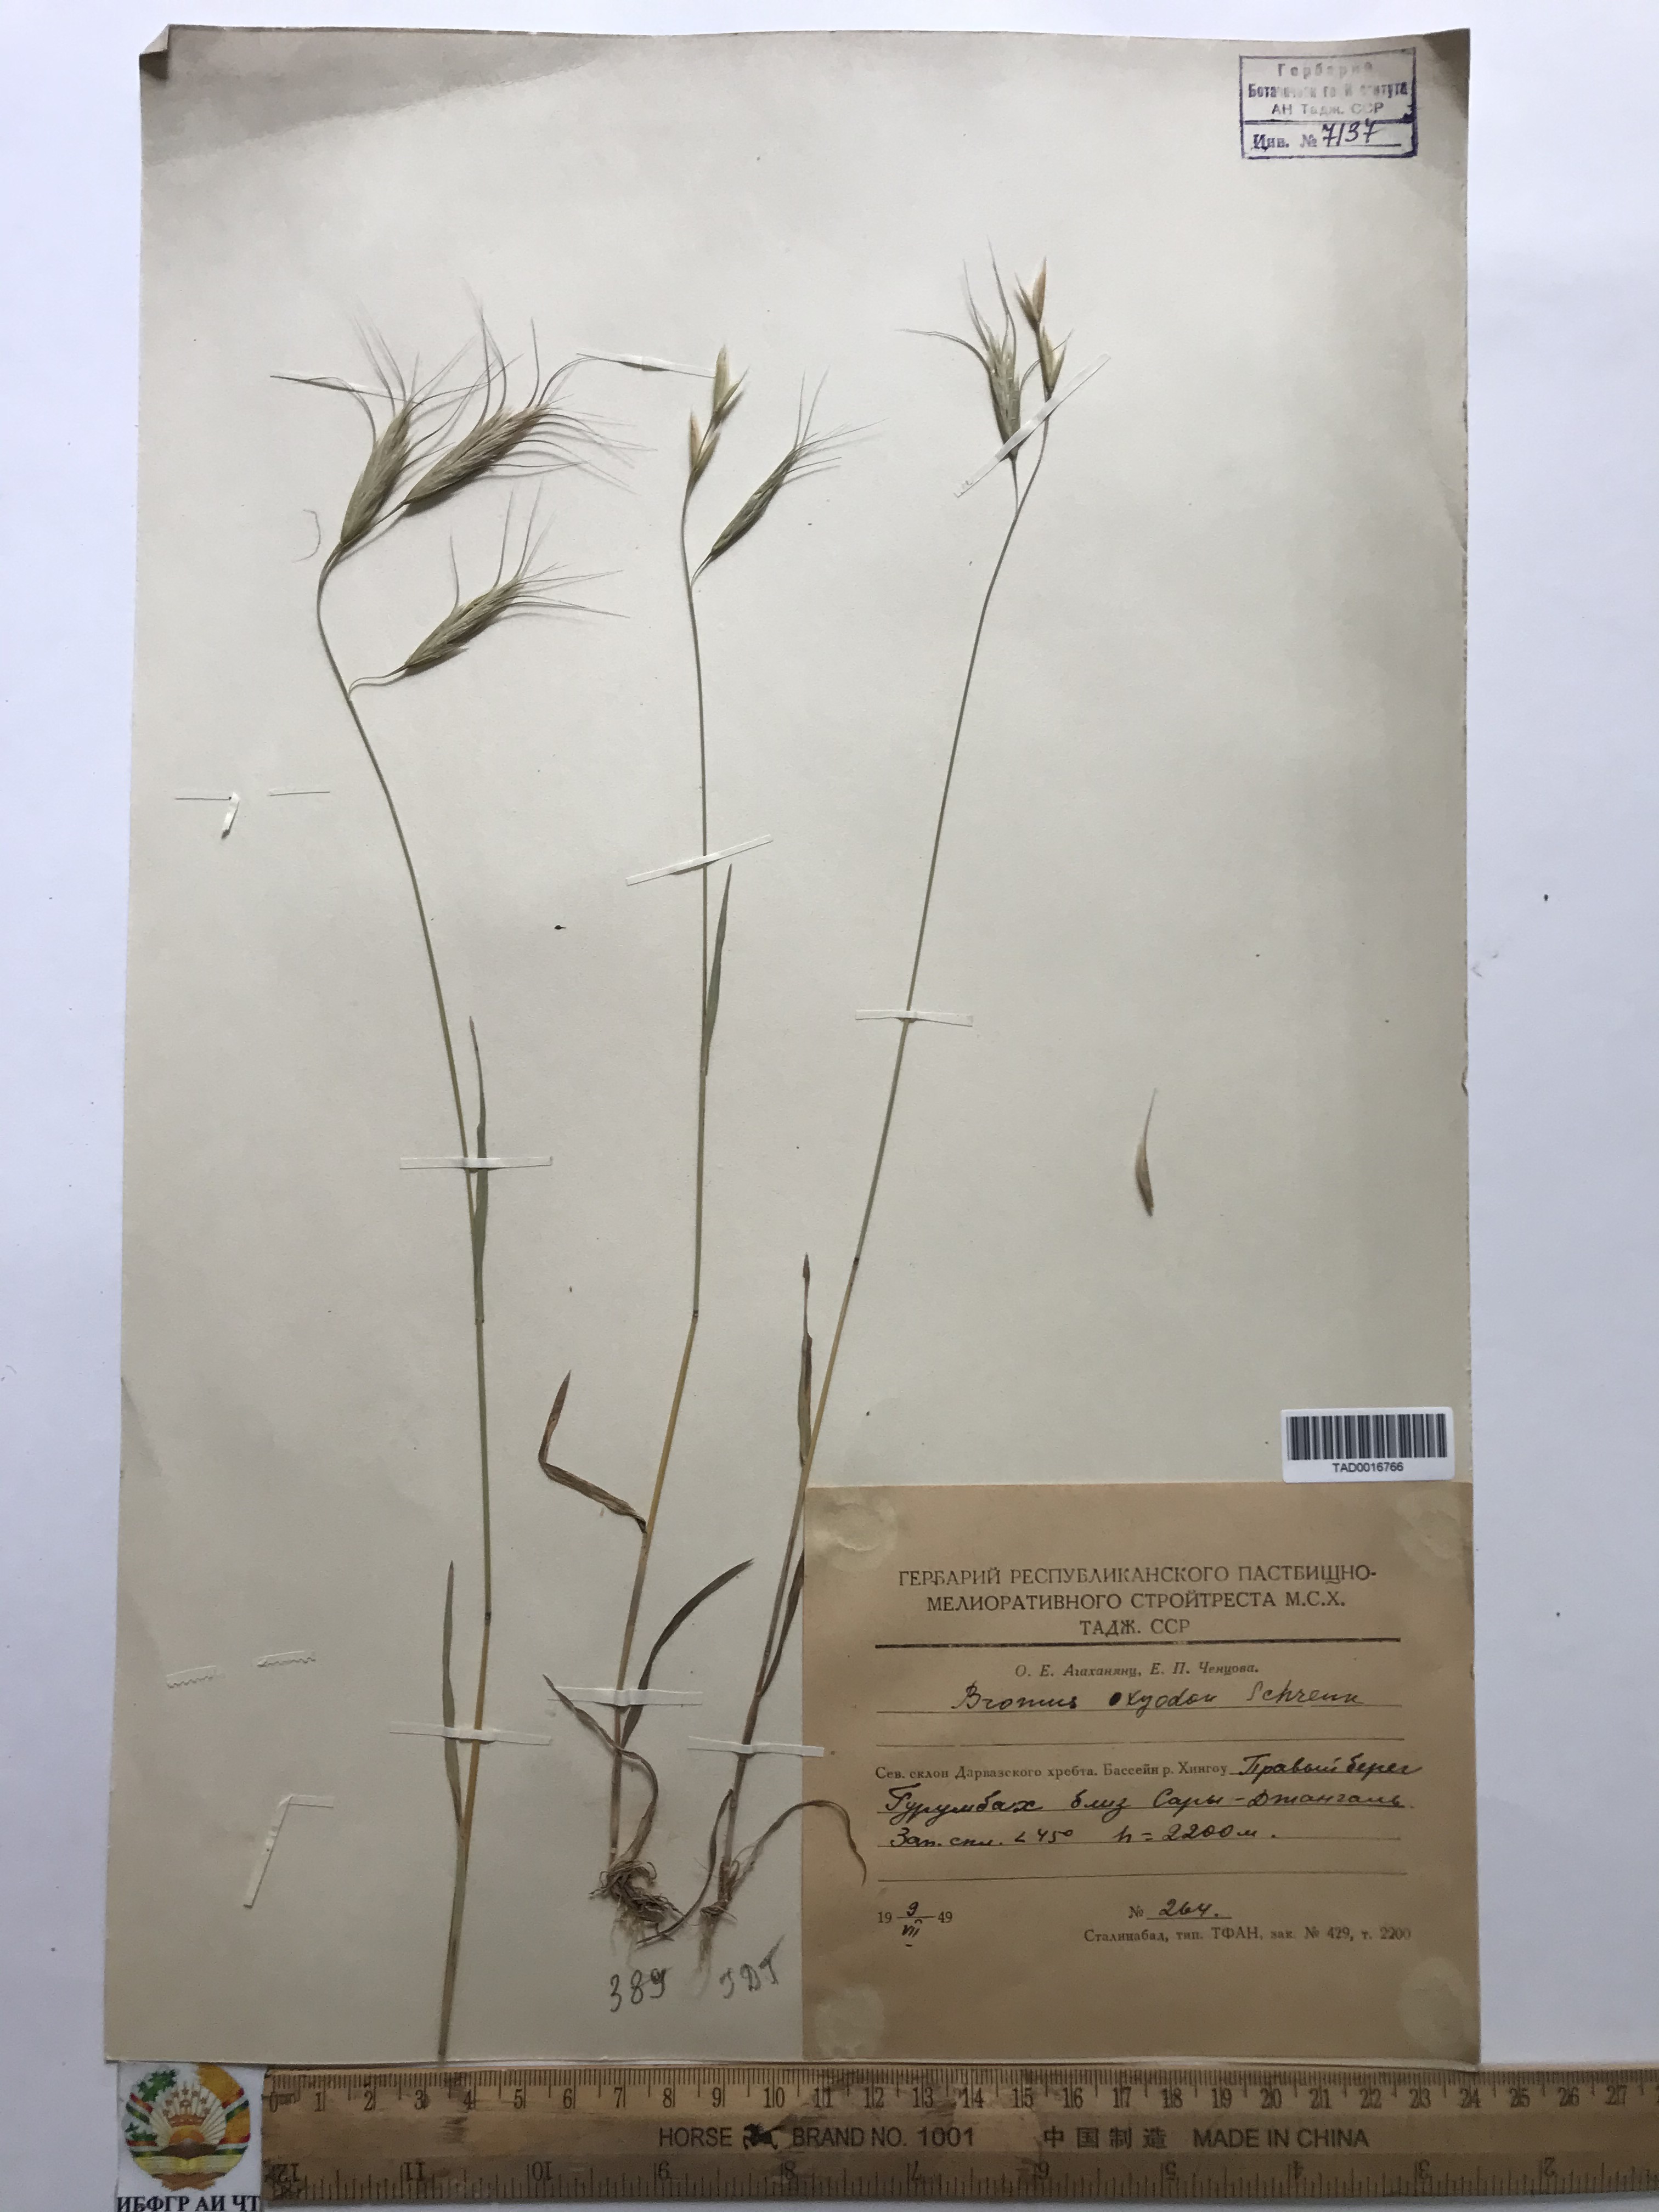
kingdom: Plantae
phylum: Tracheophyta
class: Liliopsida
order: Poales
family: Poaceae
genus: Bromus
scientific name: Bromus oxyodon
